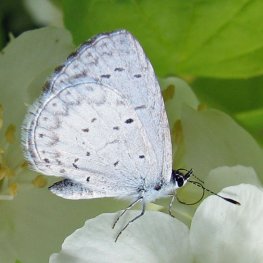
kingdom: Animalia
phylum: Arthropoda
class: Insecta
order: Lepidoptera
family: Lycaenidae
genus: Cyaniris
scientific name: Cyaniris neglecta
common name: Summer Azure
